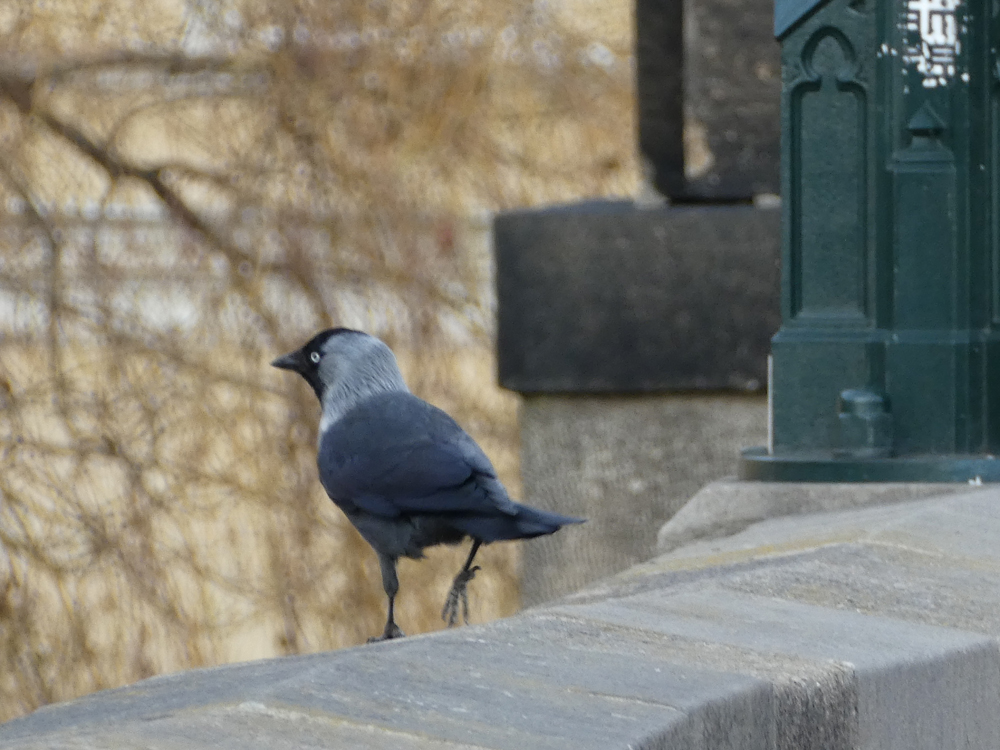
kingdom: Animalia
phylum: Chordata
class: Aves
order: Passeriformes
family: Corvidae
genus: Coloeus
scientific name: Coloeus monedula
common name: Western jackdaw
